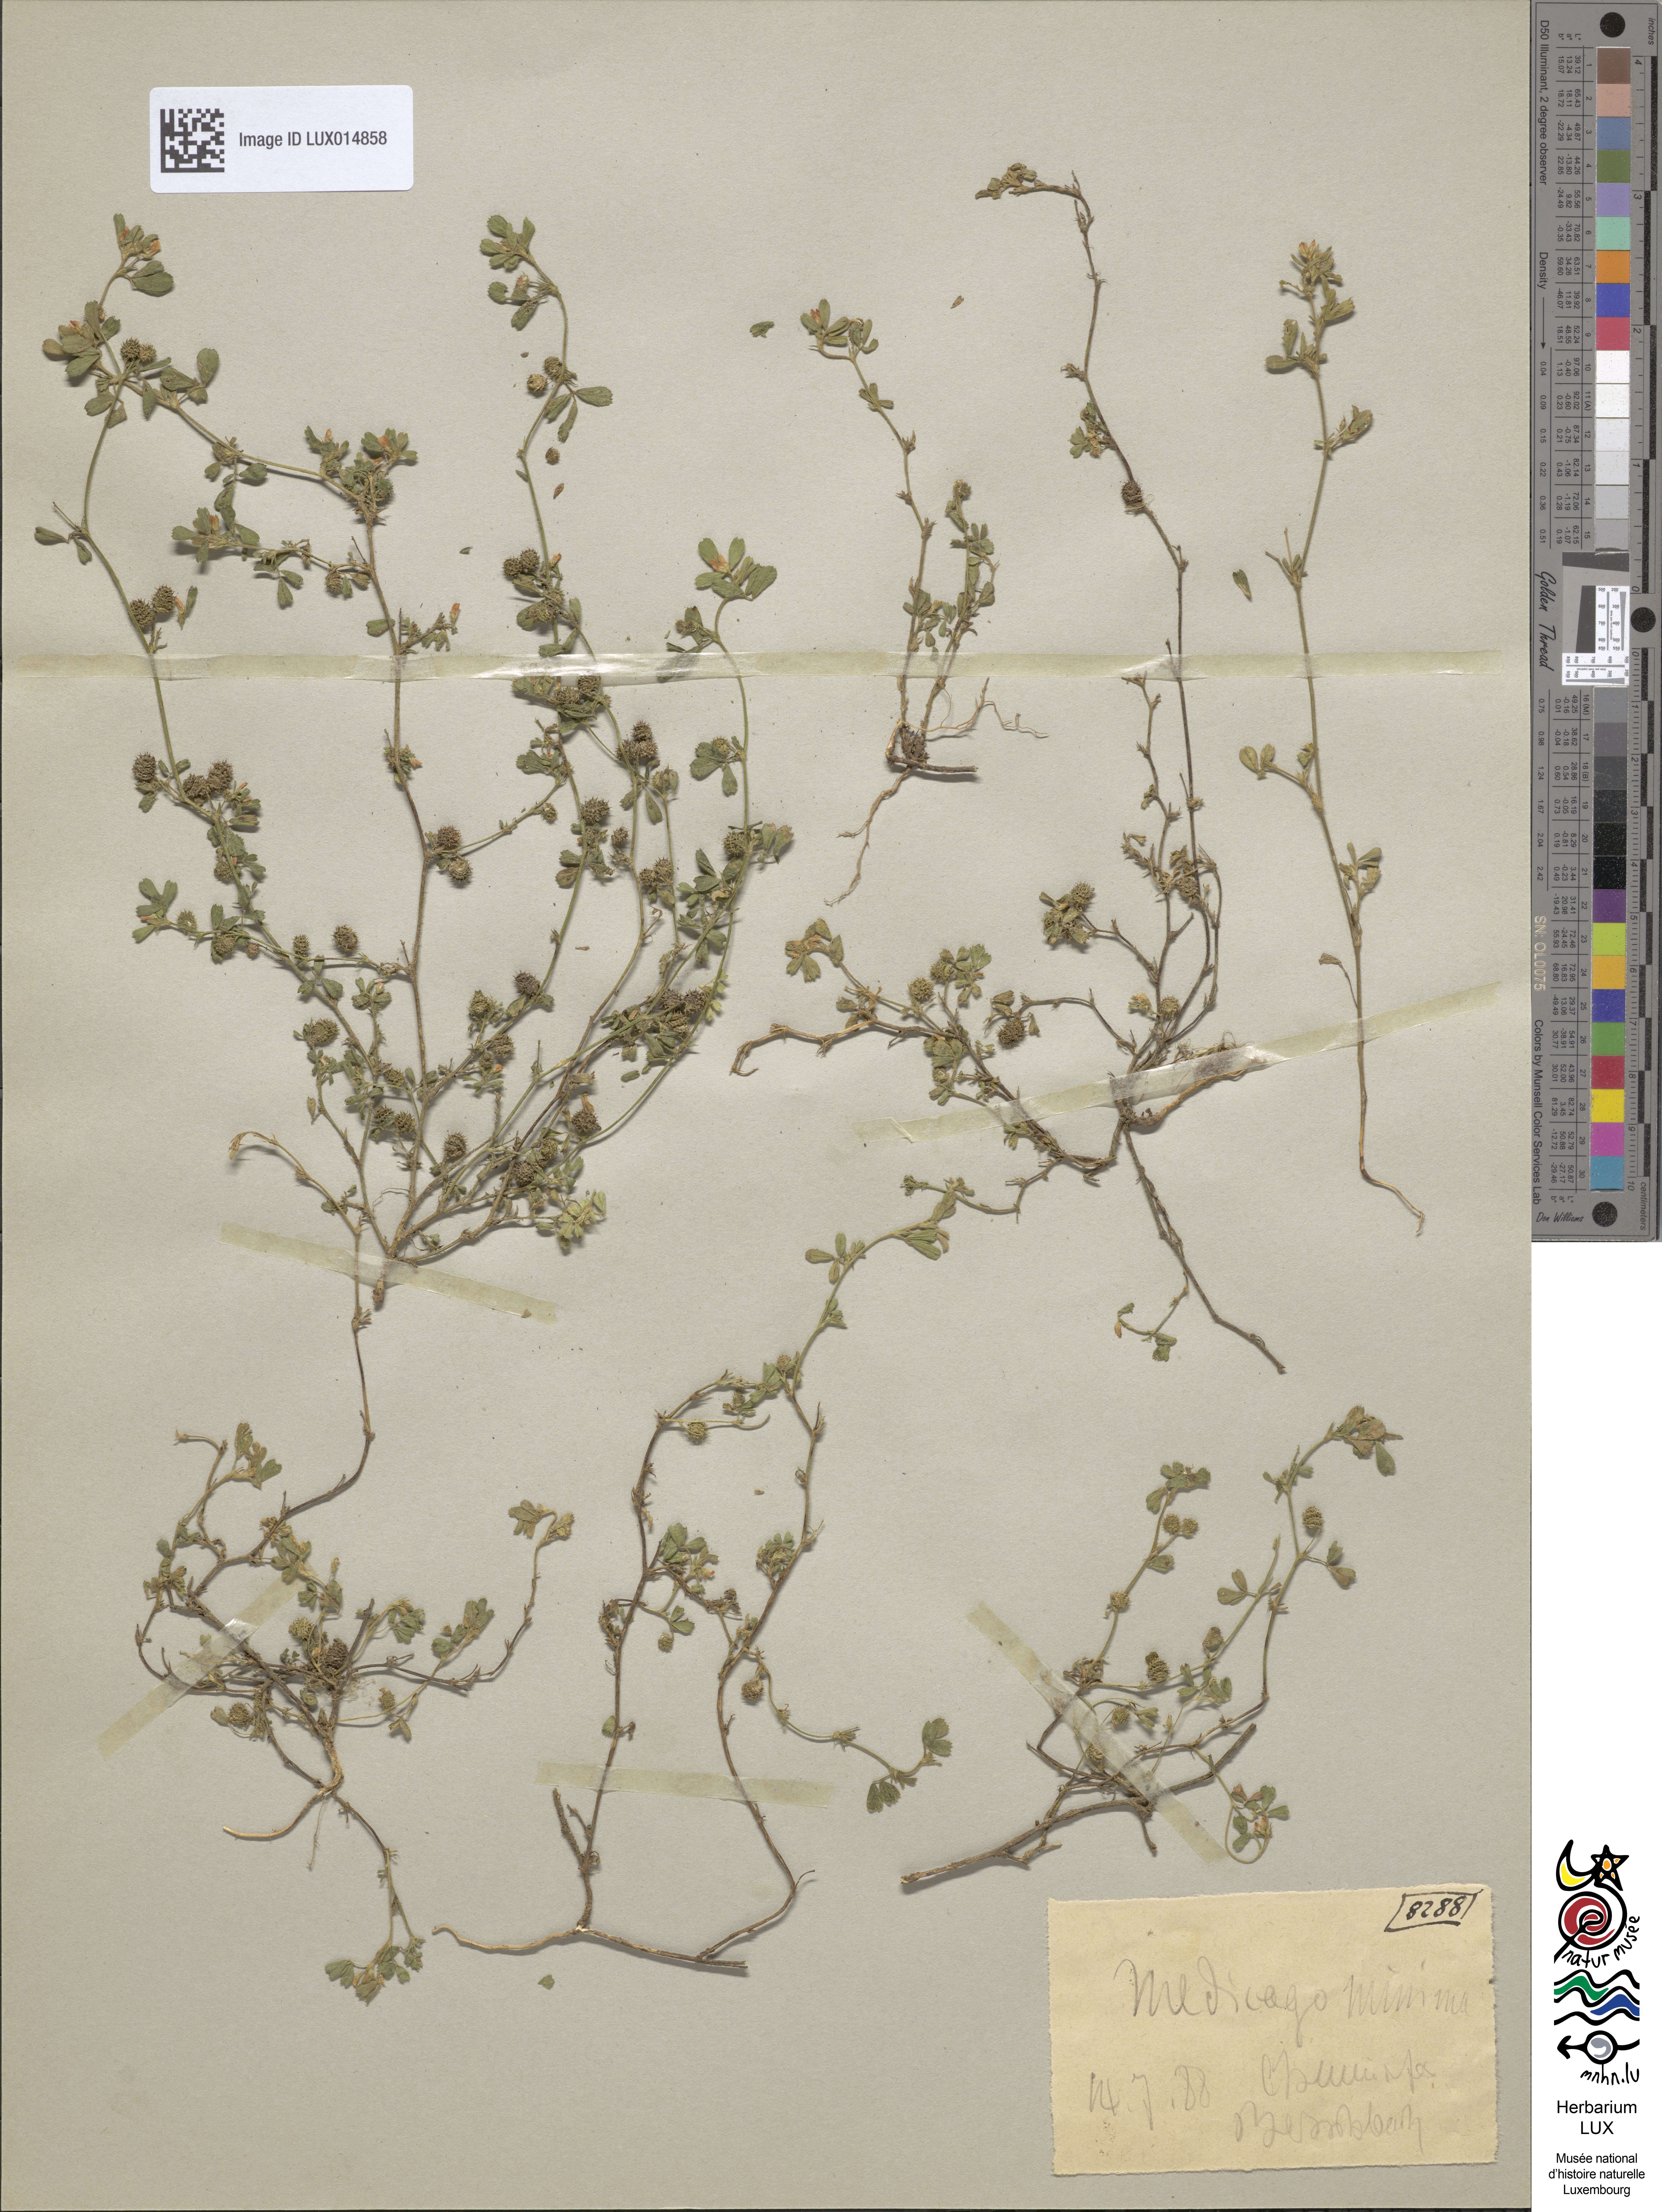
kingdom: Plantae
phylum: Tracheophyta
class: Magnoliopsida
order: Fabales
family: Fabaceae
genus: Medicago
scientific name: Medicago minima
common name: Little bur-clover
